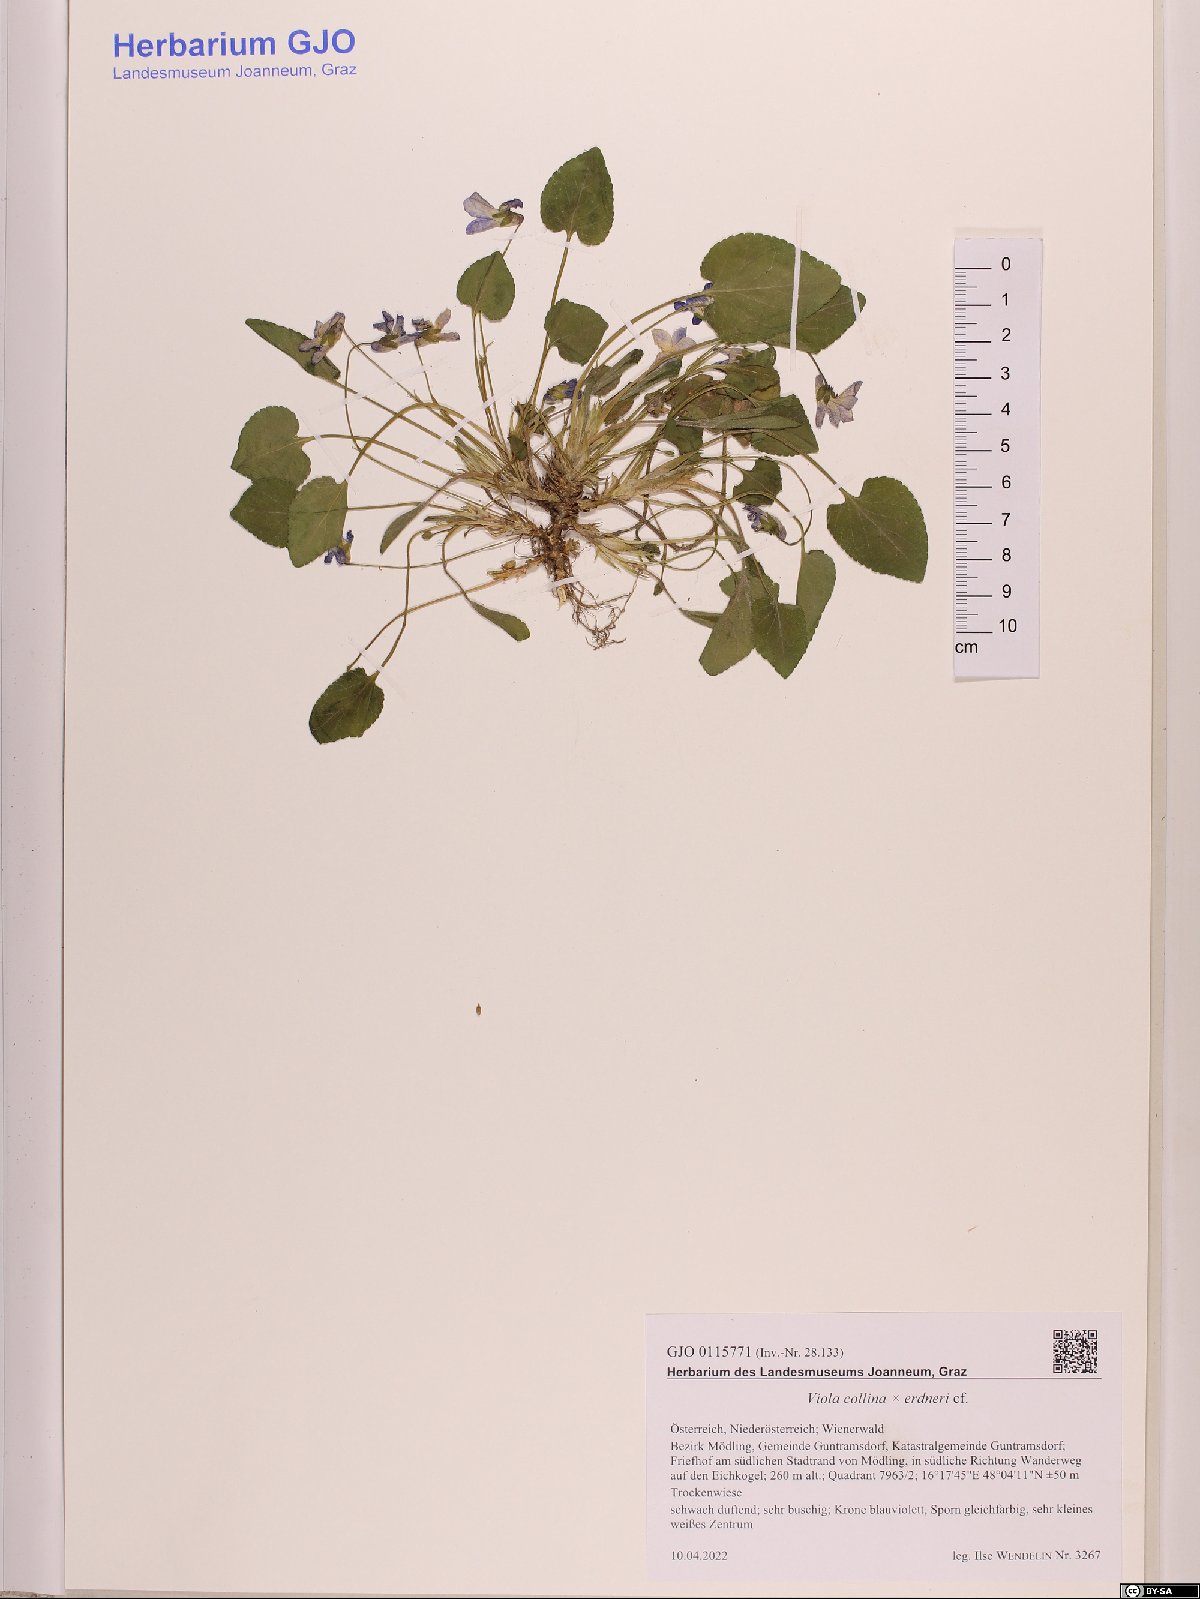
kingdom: Plantae
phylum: Tracheophyta
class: Magnoliopsida
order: Malpighiales
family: Violaceae
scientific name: Violaceae
